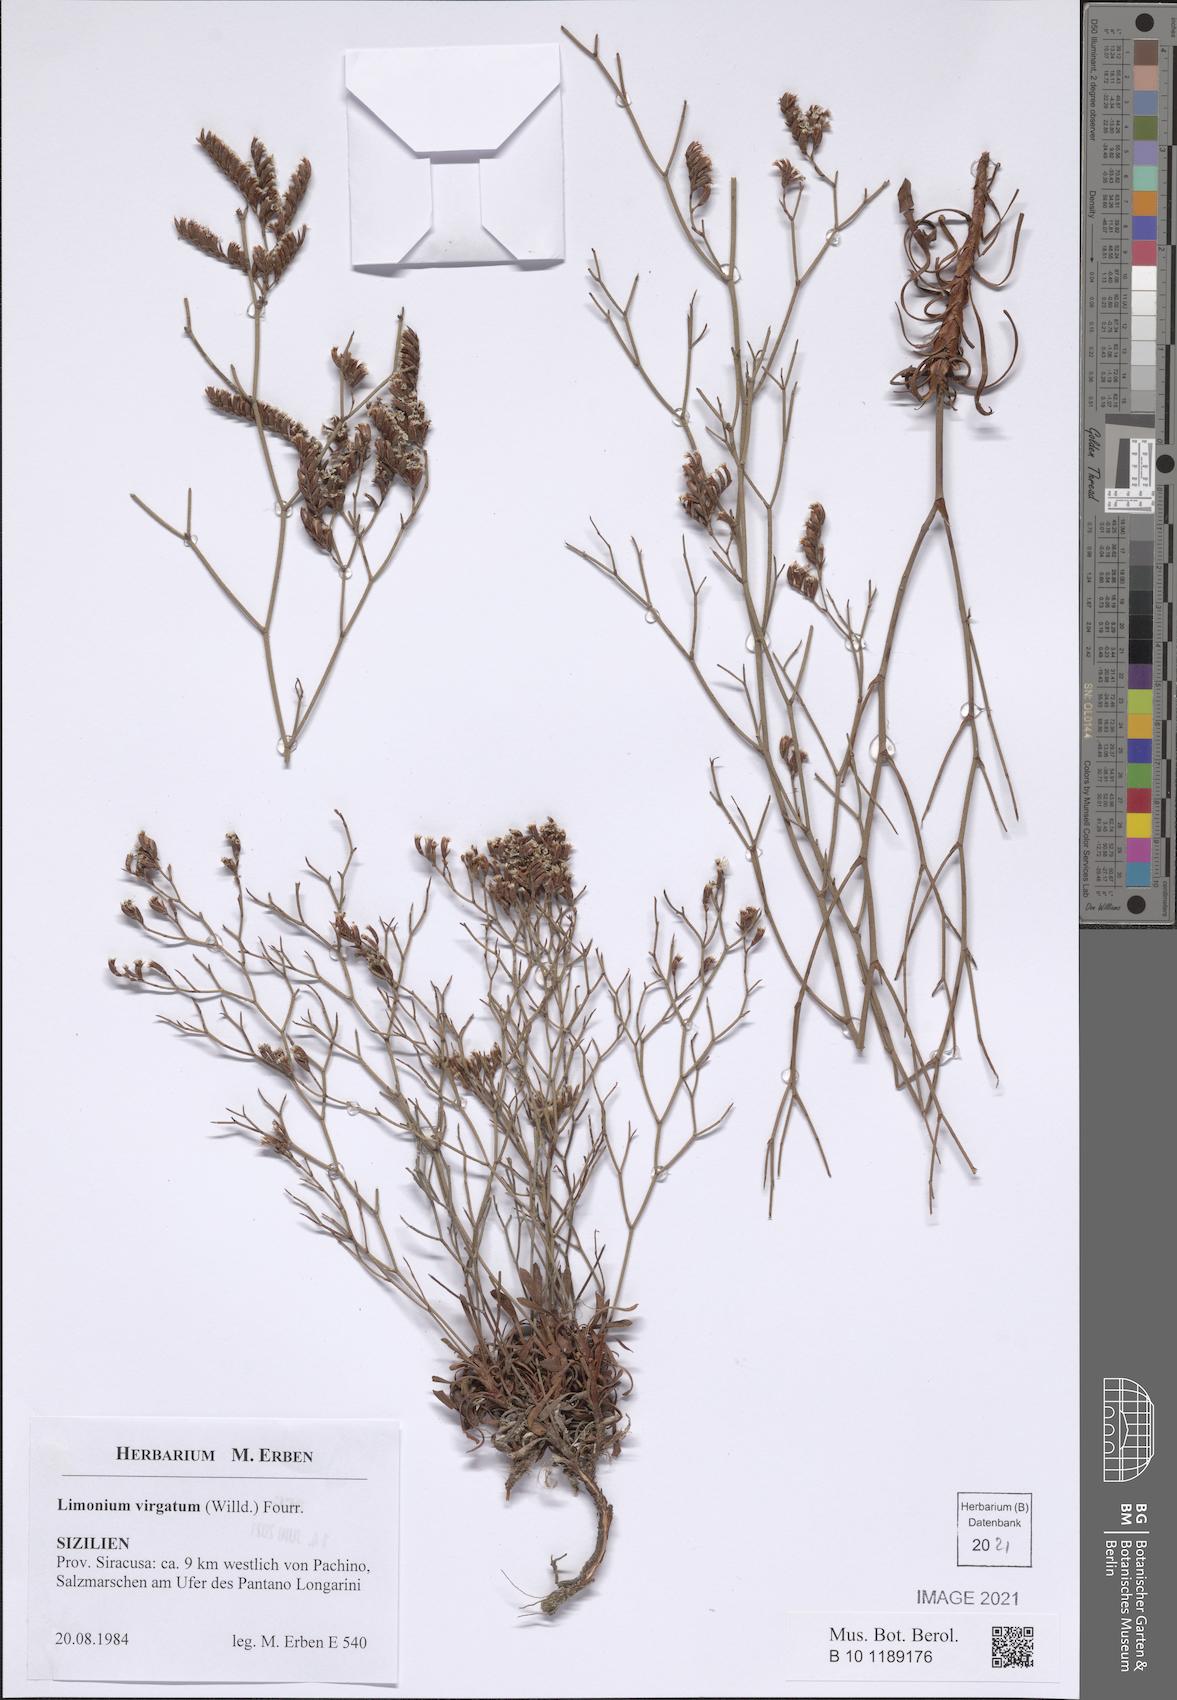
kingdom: Plantae
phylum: Tracheophyta
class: Magnoliopsida
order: Caryophyllales
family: Plumbaginaceae
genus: Limonium
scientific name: Limonium virgatum
